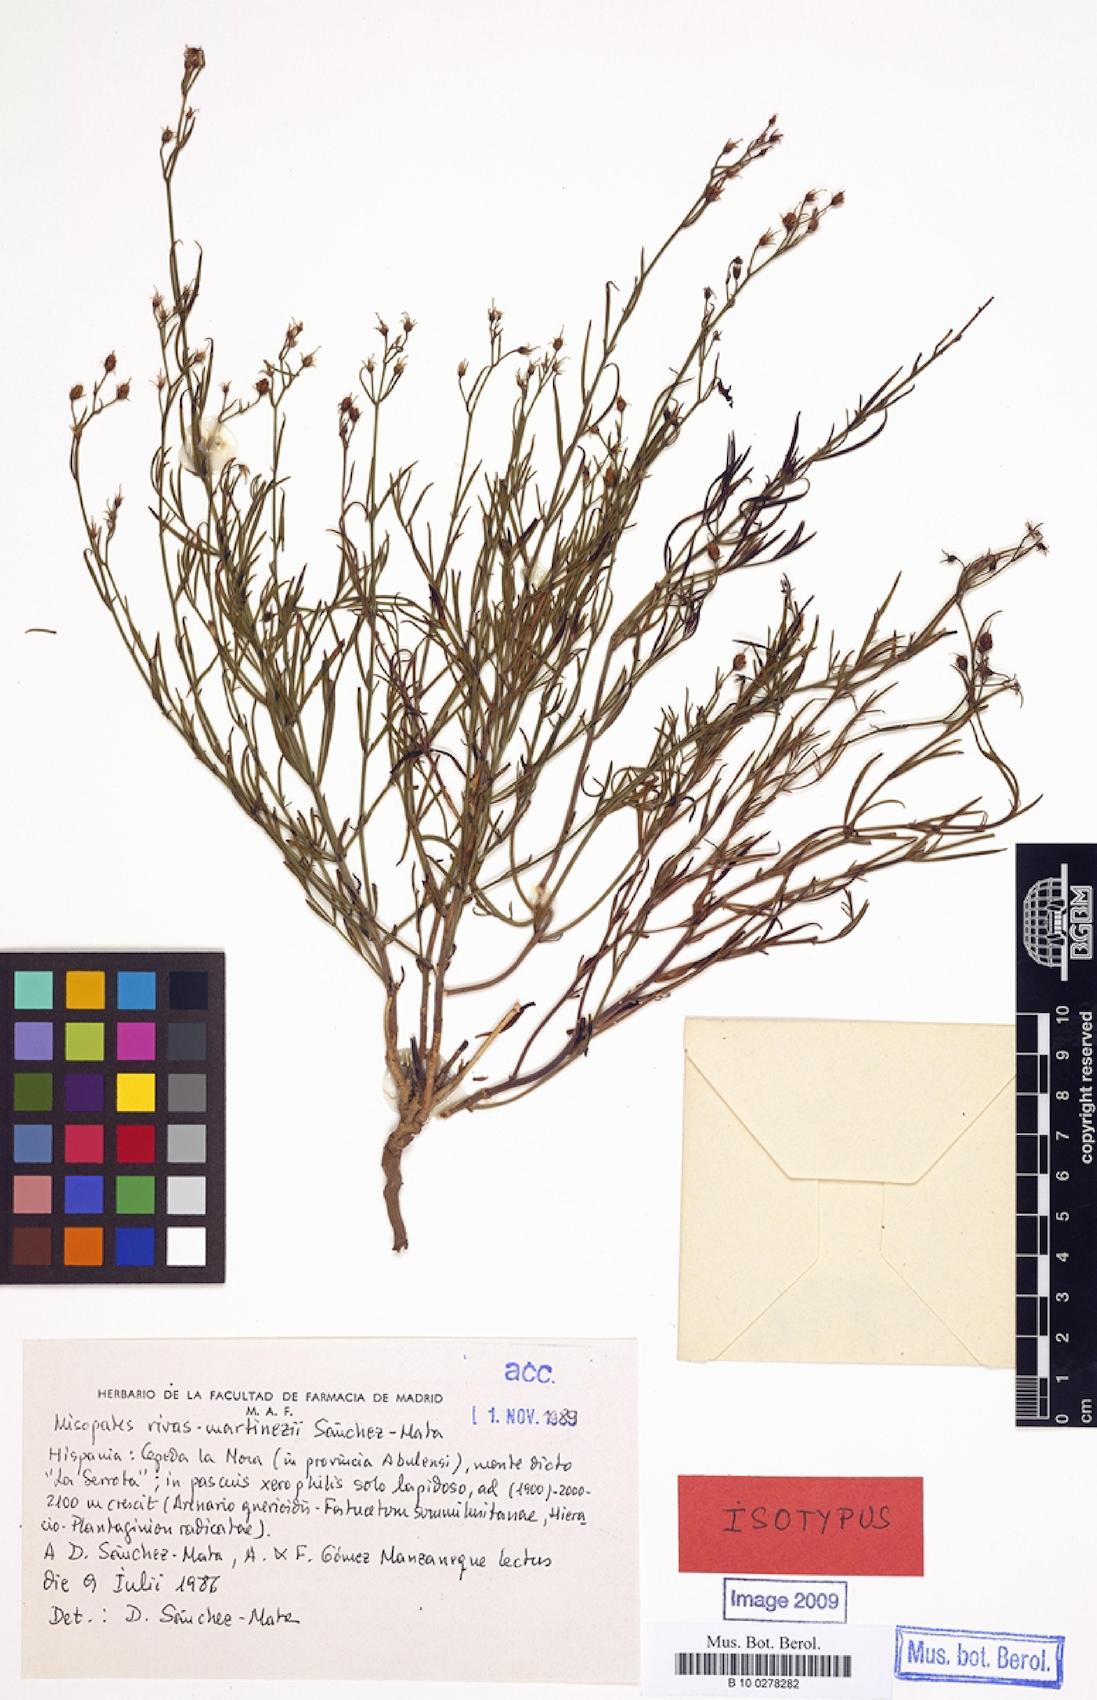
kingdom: Plantae
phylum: Tracheophyta
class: Magnoliopsida
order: Lamiales
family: Plantaginaceae
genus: Pseudomisopates
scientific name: Pseudomisopates rivas-martinezii
